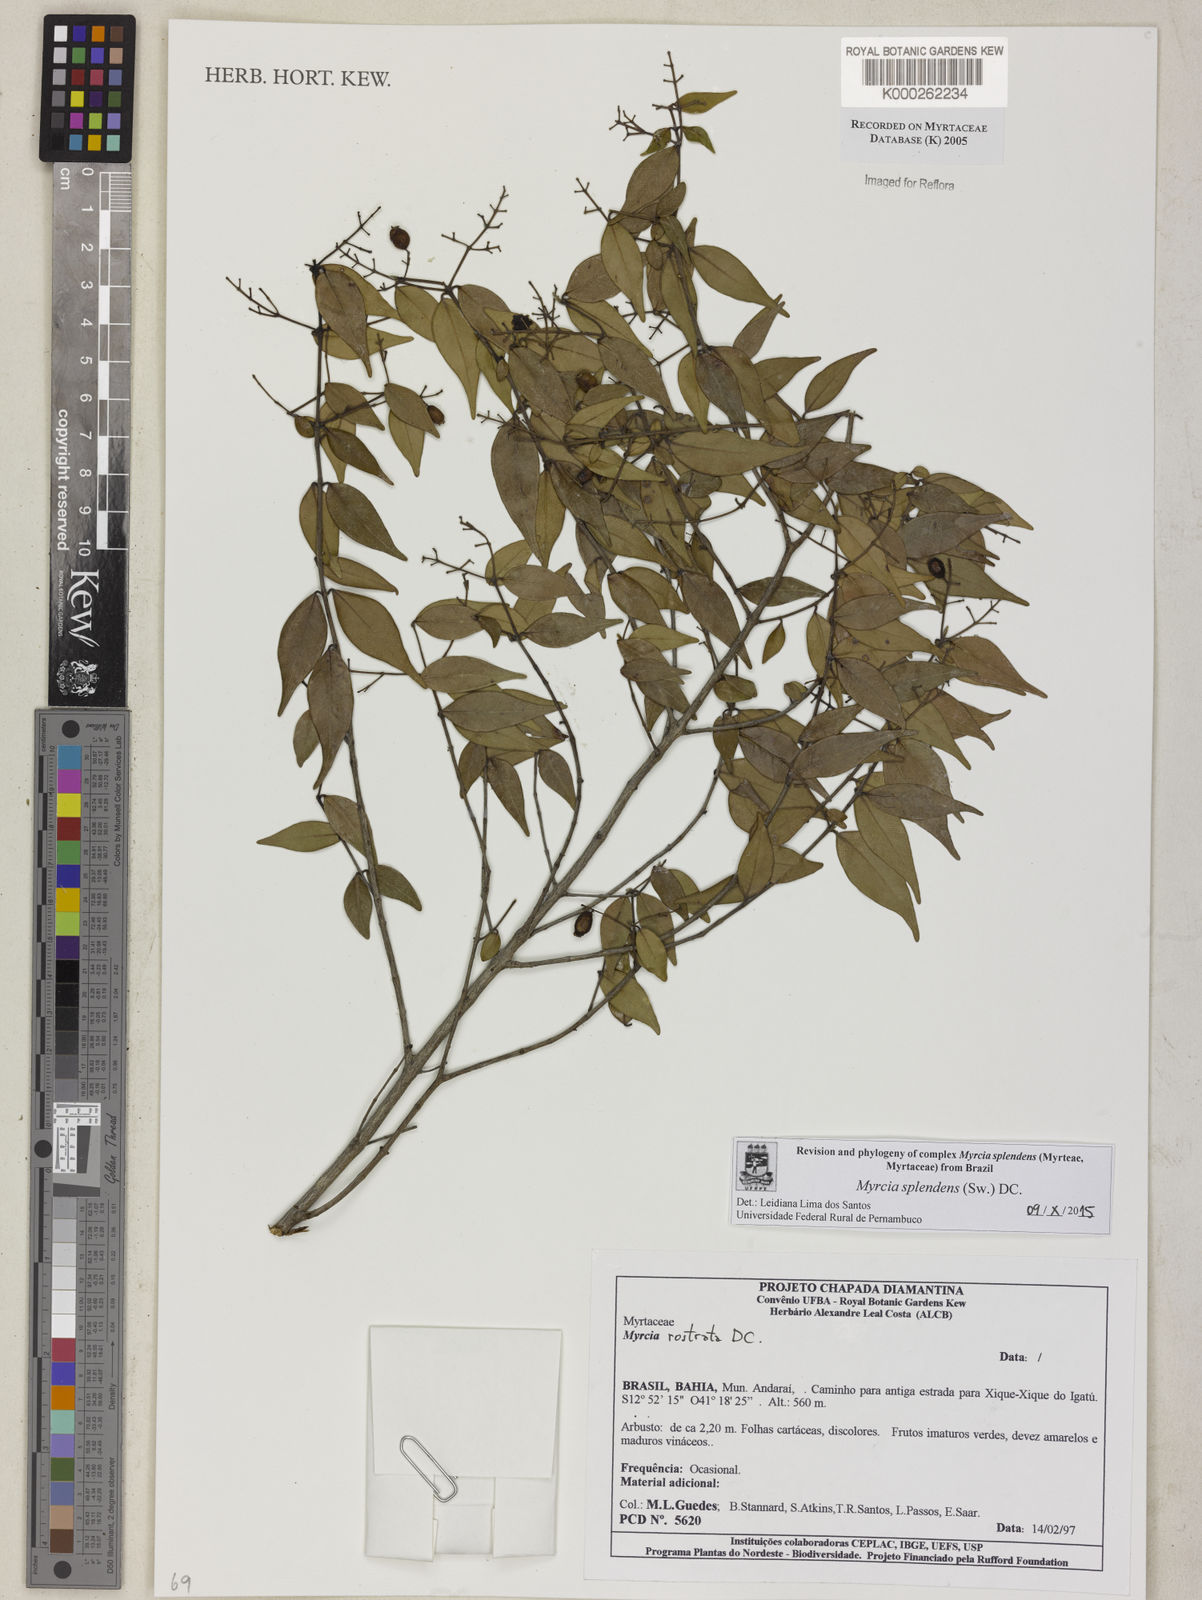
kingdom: Plantae
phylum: Tracheophyta
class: Magnoliopsida
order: Myrtales
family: Myrtaceae
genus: Myrcia
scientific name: Myrcia splendens
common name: Surinam cherry
